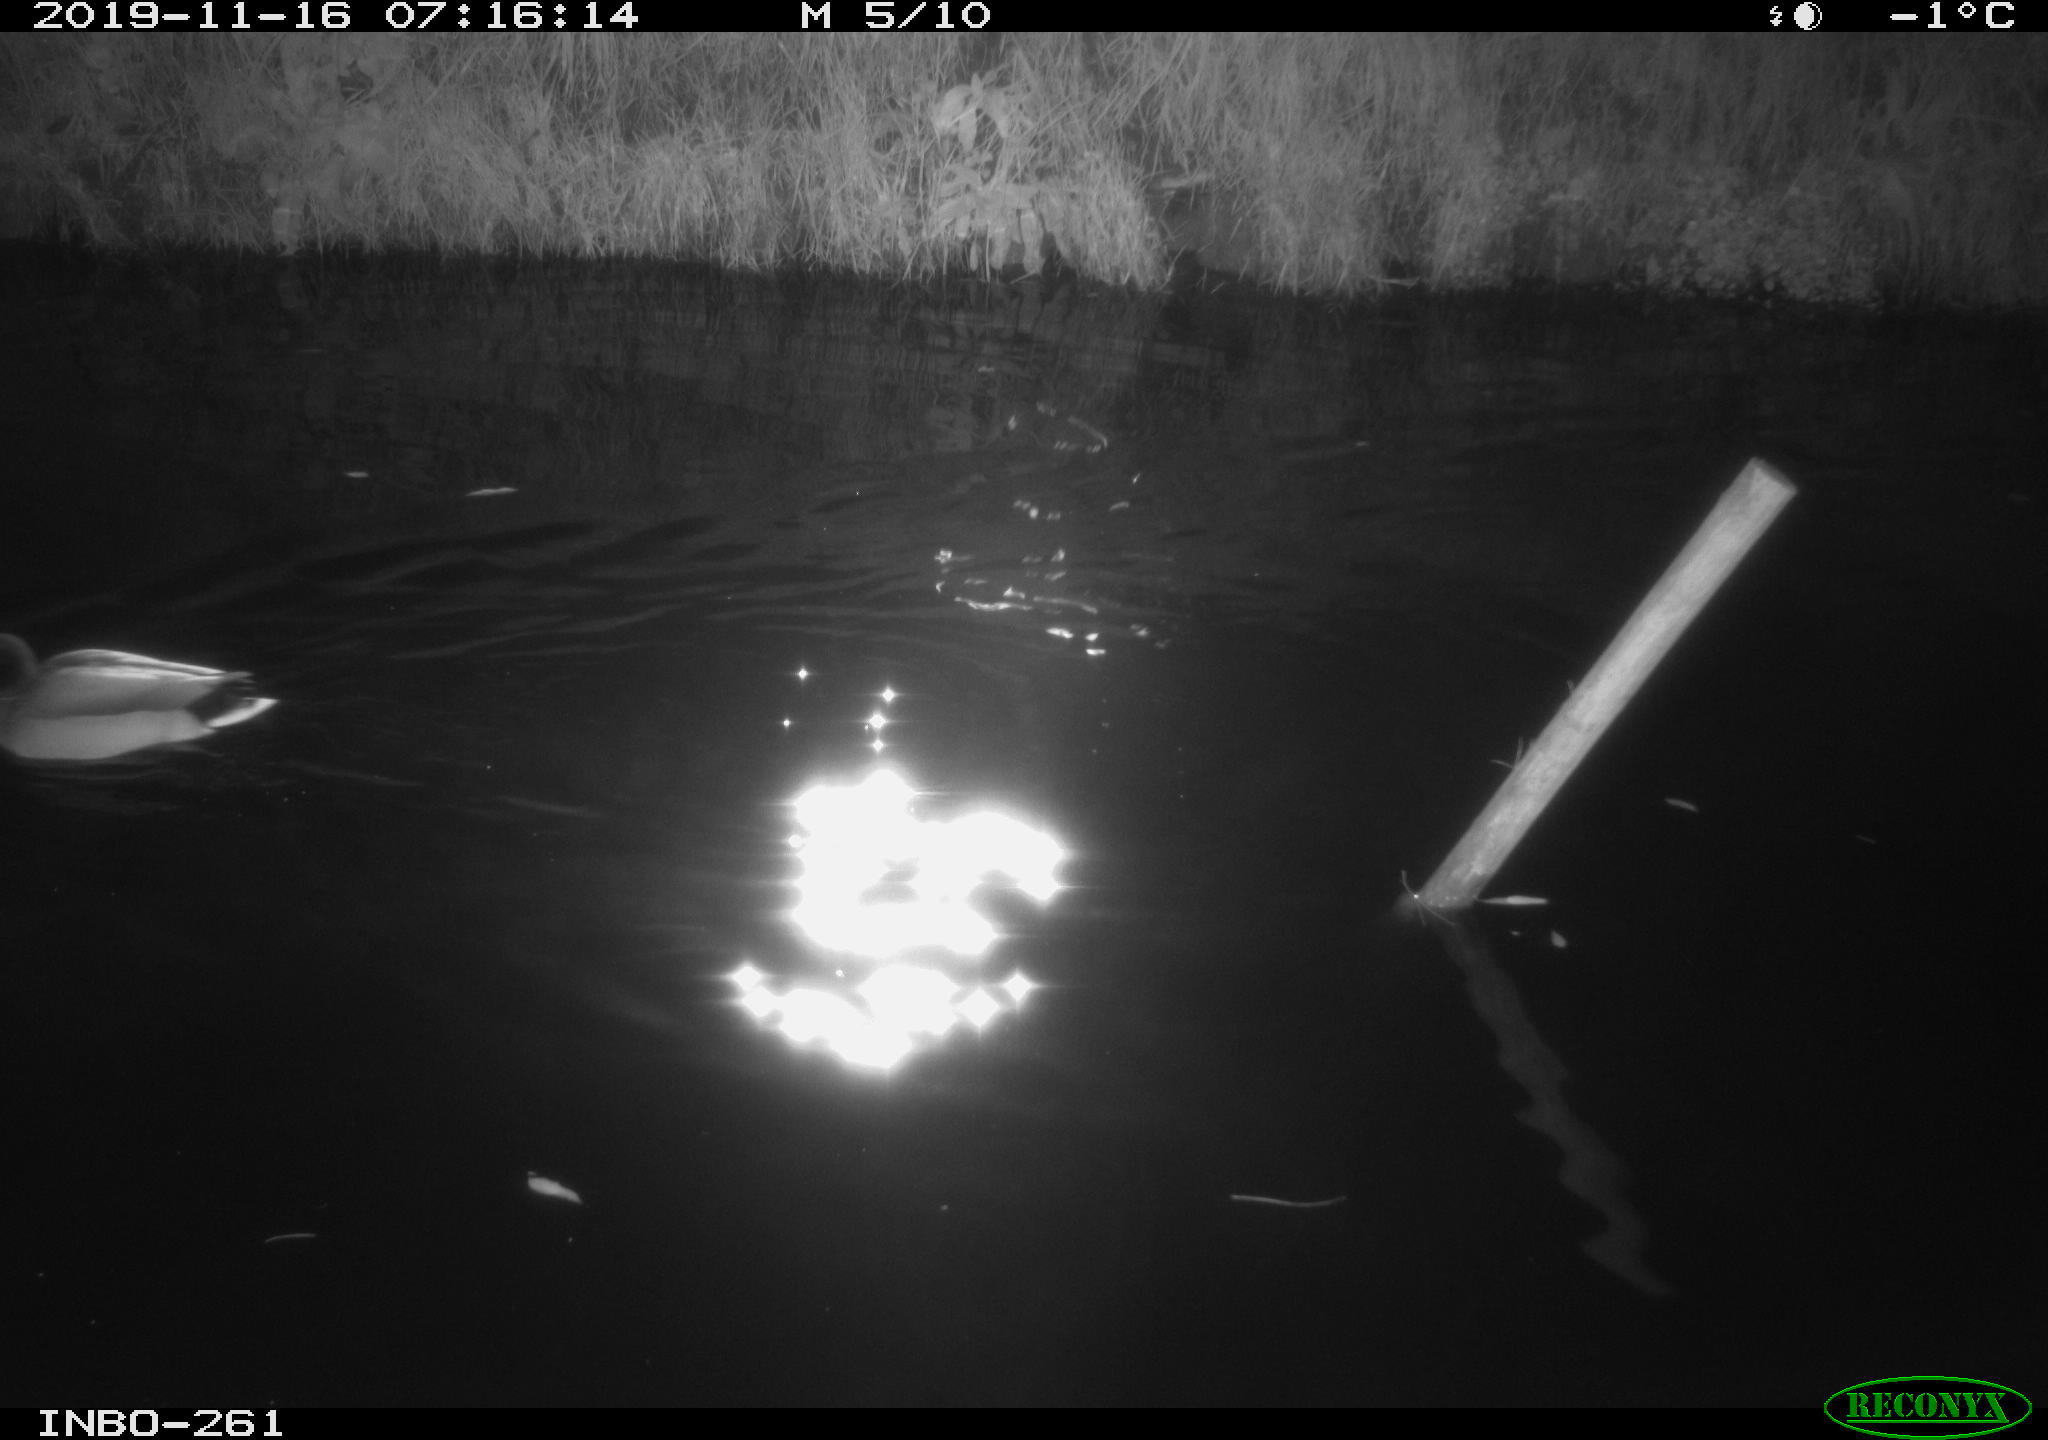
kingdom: Animalia
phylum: Chordata
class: Aves
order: Anseriformes
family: Anatidae
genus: Anas
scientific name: Anas platyrhynchos
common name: Mallard
